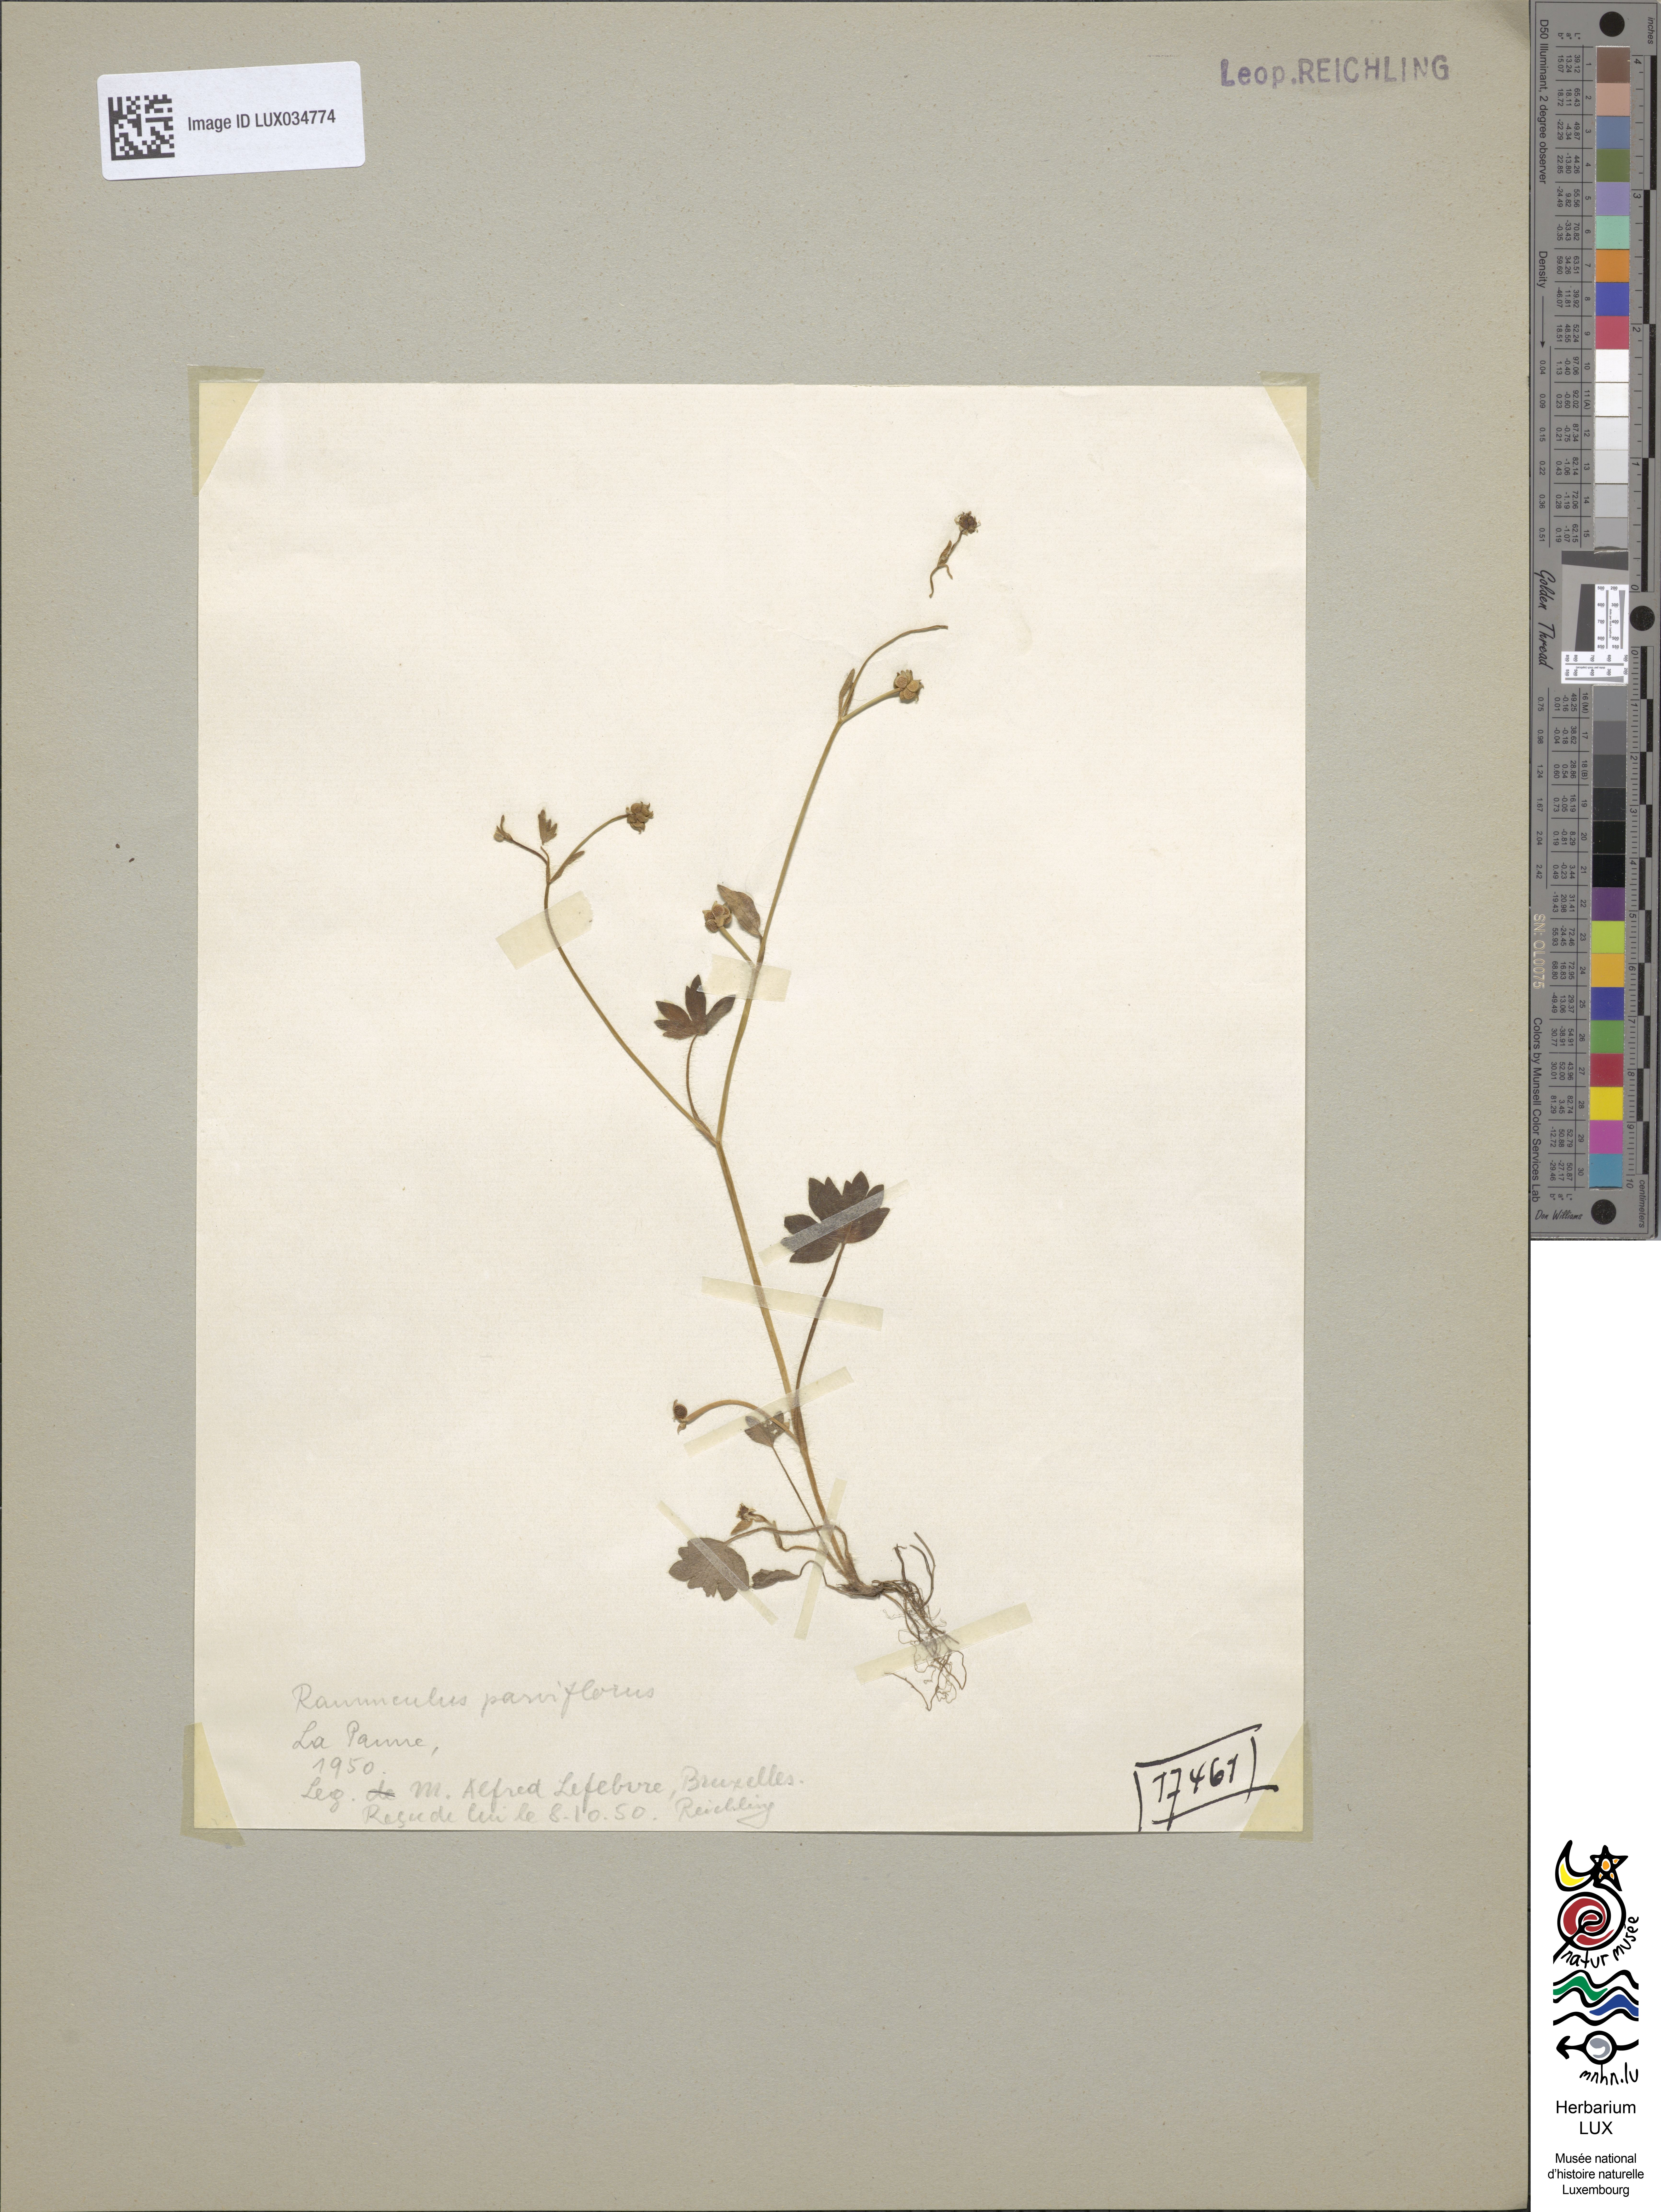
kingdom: Plantae
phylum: Tracheophyta
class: Magnoliopsida
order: Ranunculales
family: Ranunculaceae
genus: Ranunculus
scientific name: Ranunculus parviflorus
